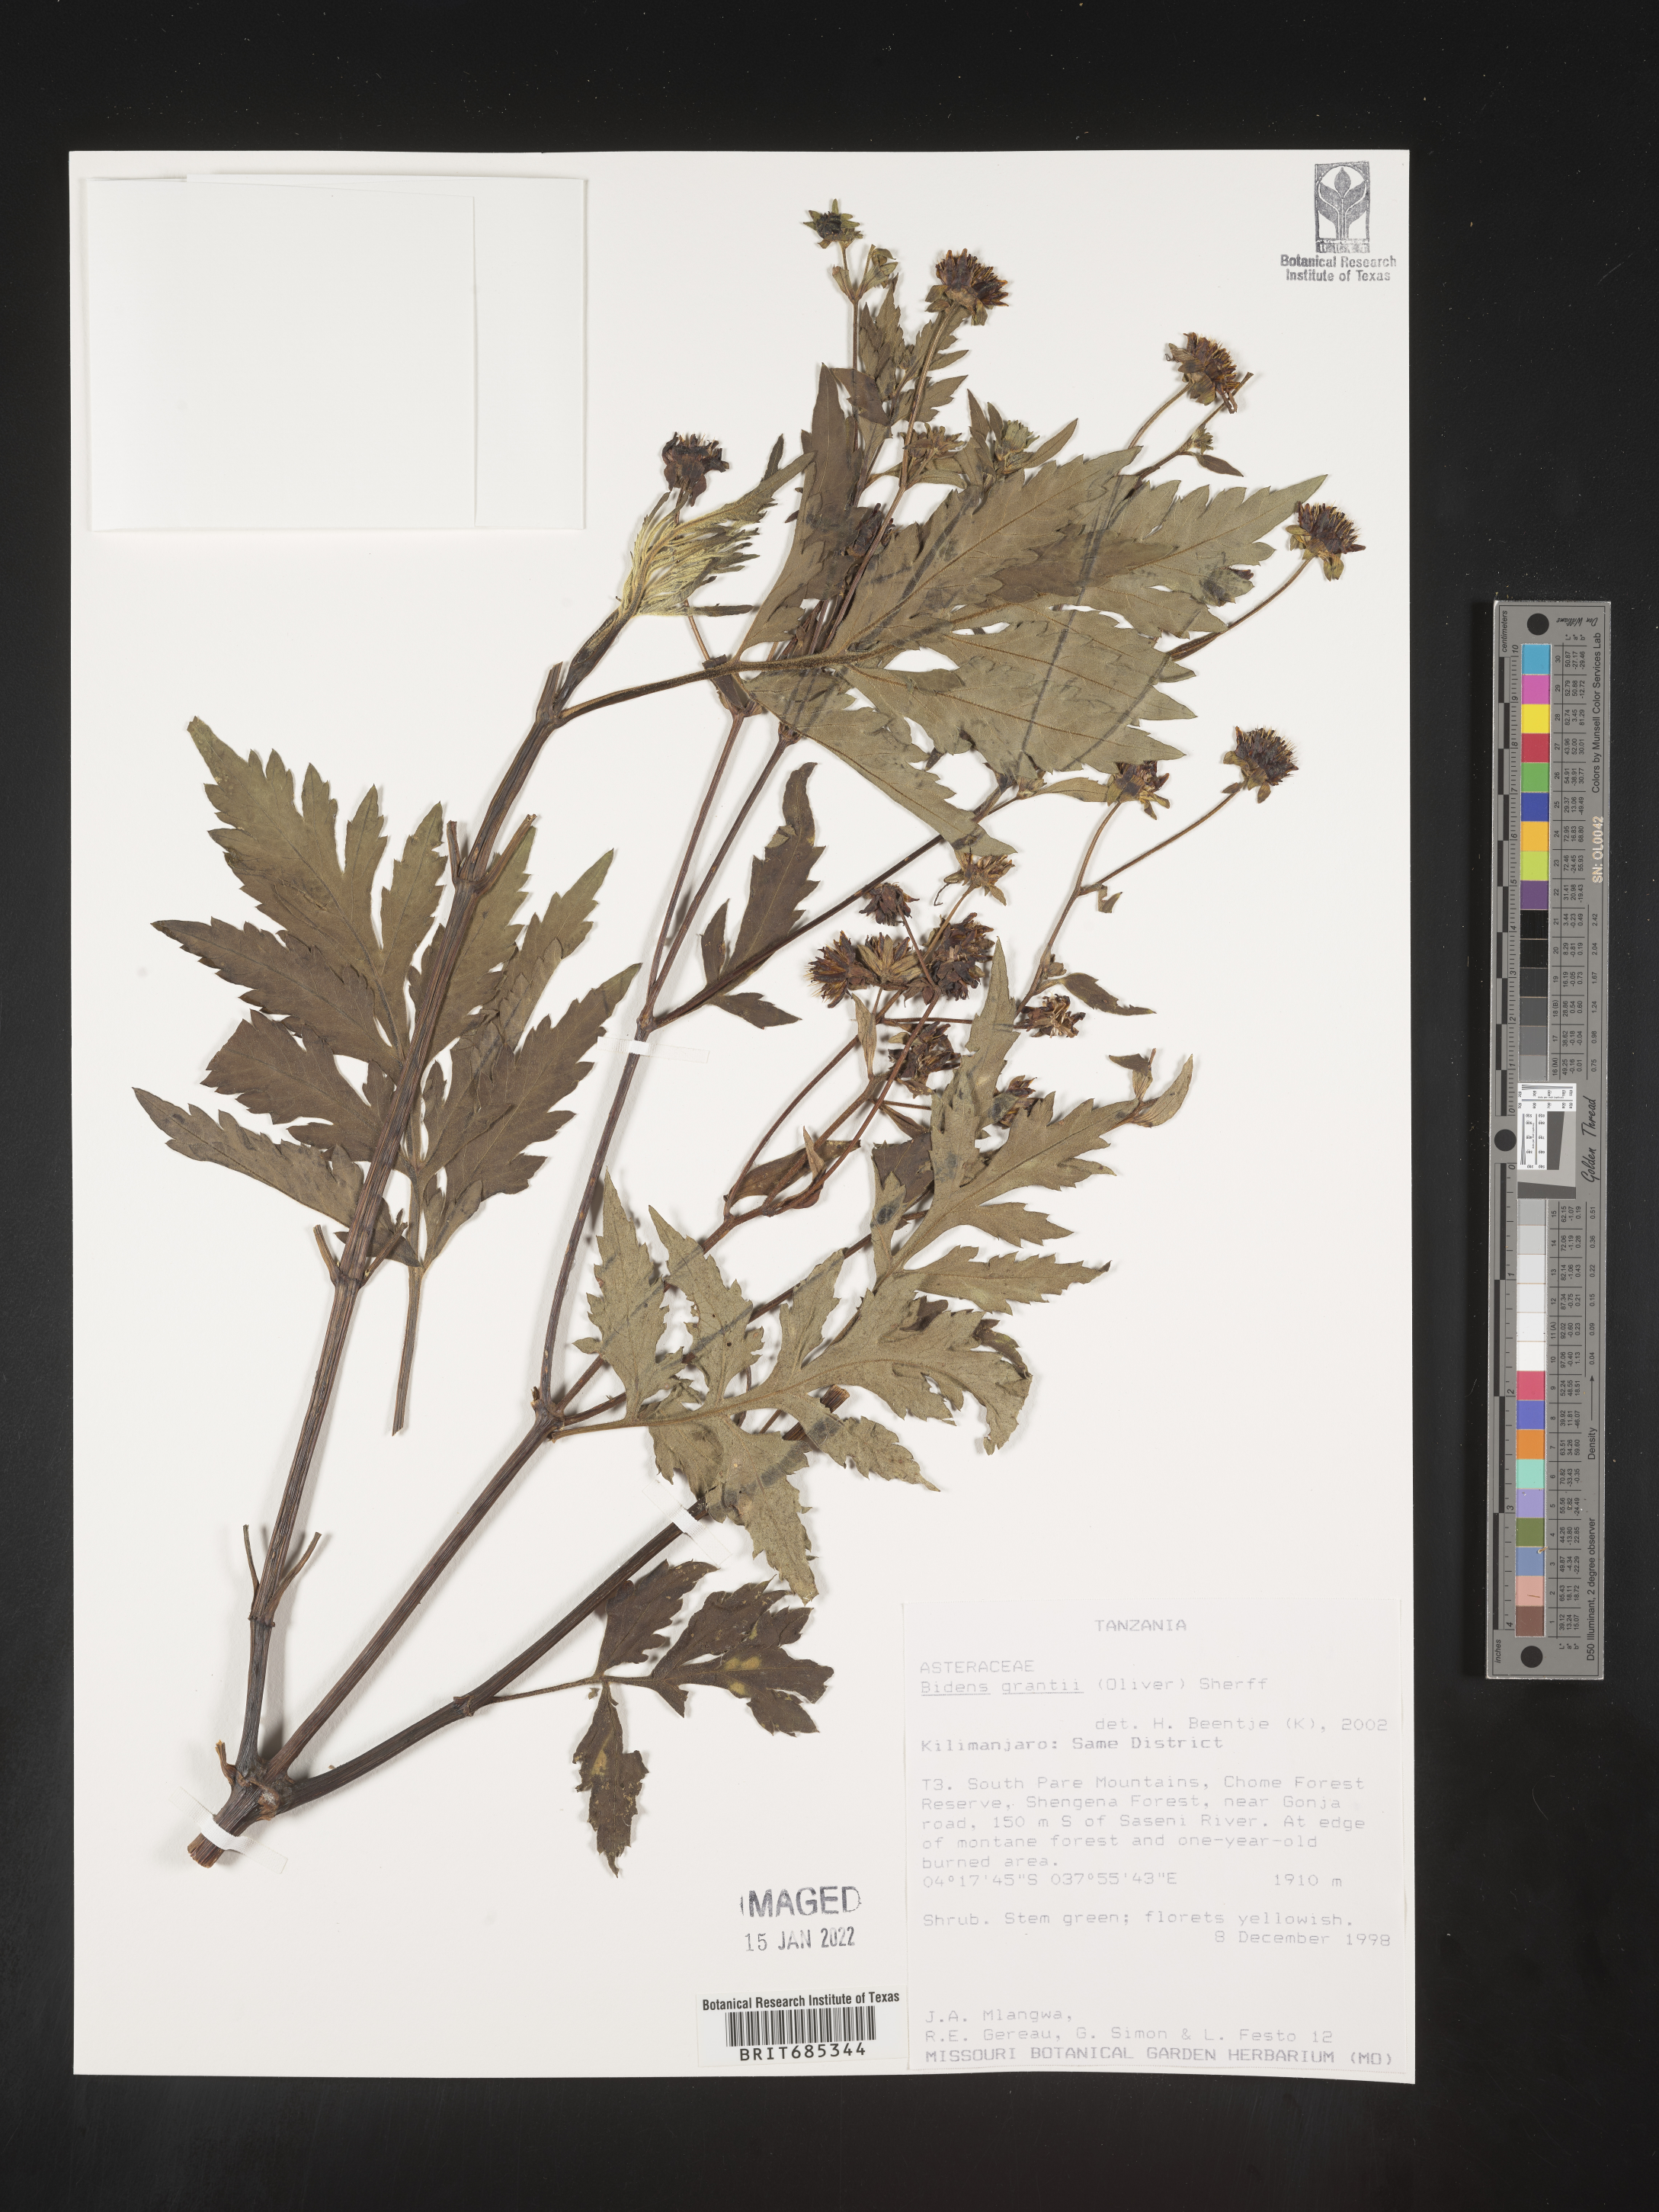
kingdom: Plantae
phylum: Tracheophyta
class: Magnoliopsida
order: Asterales
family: Asteraceae
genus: Bidens
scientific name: Bidens
